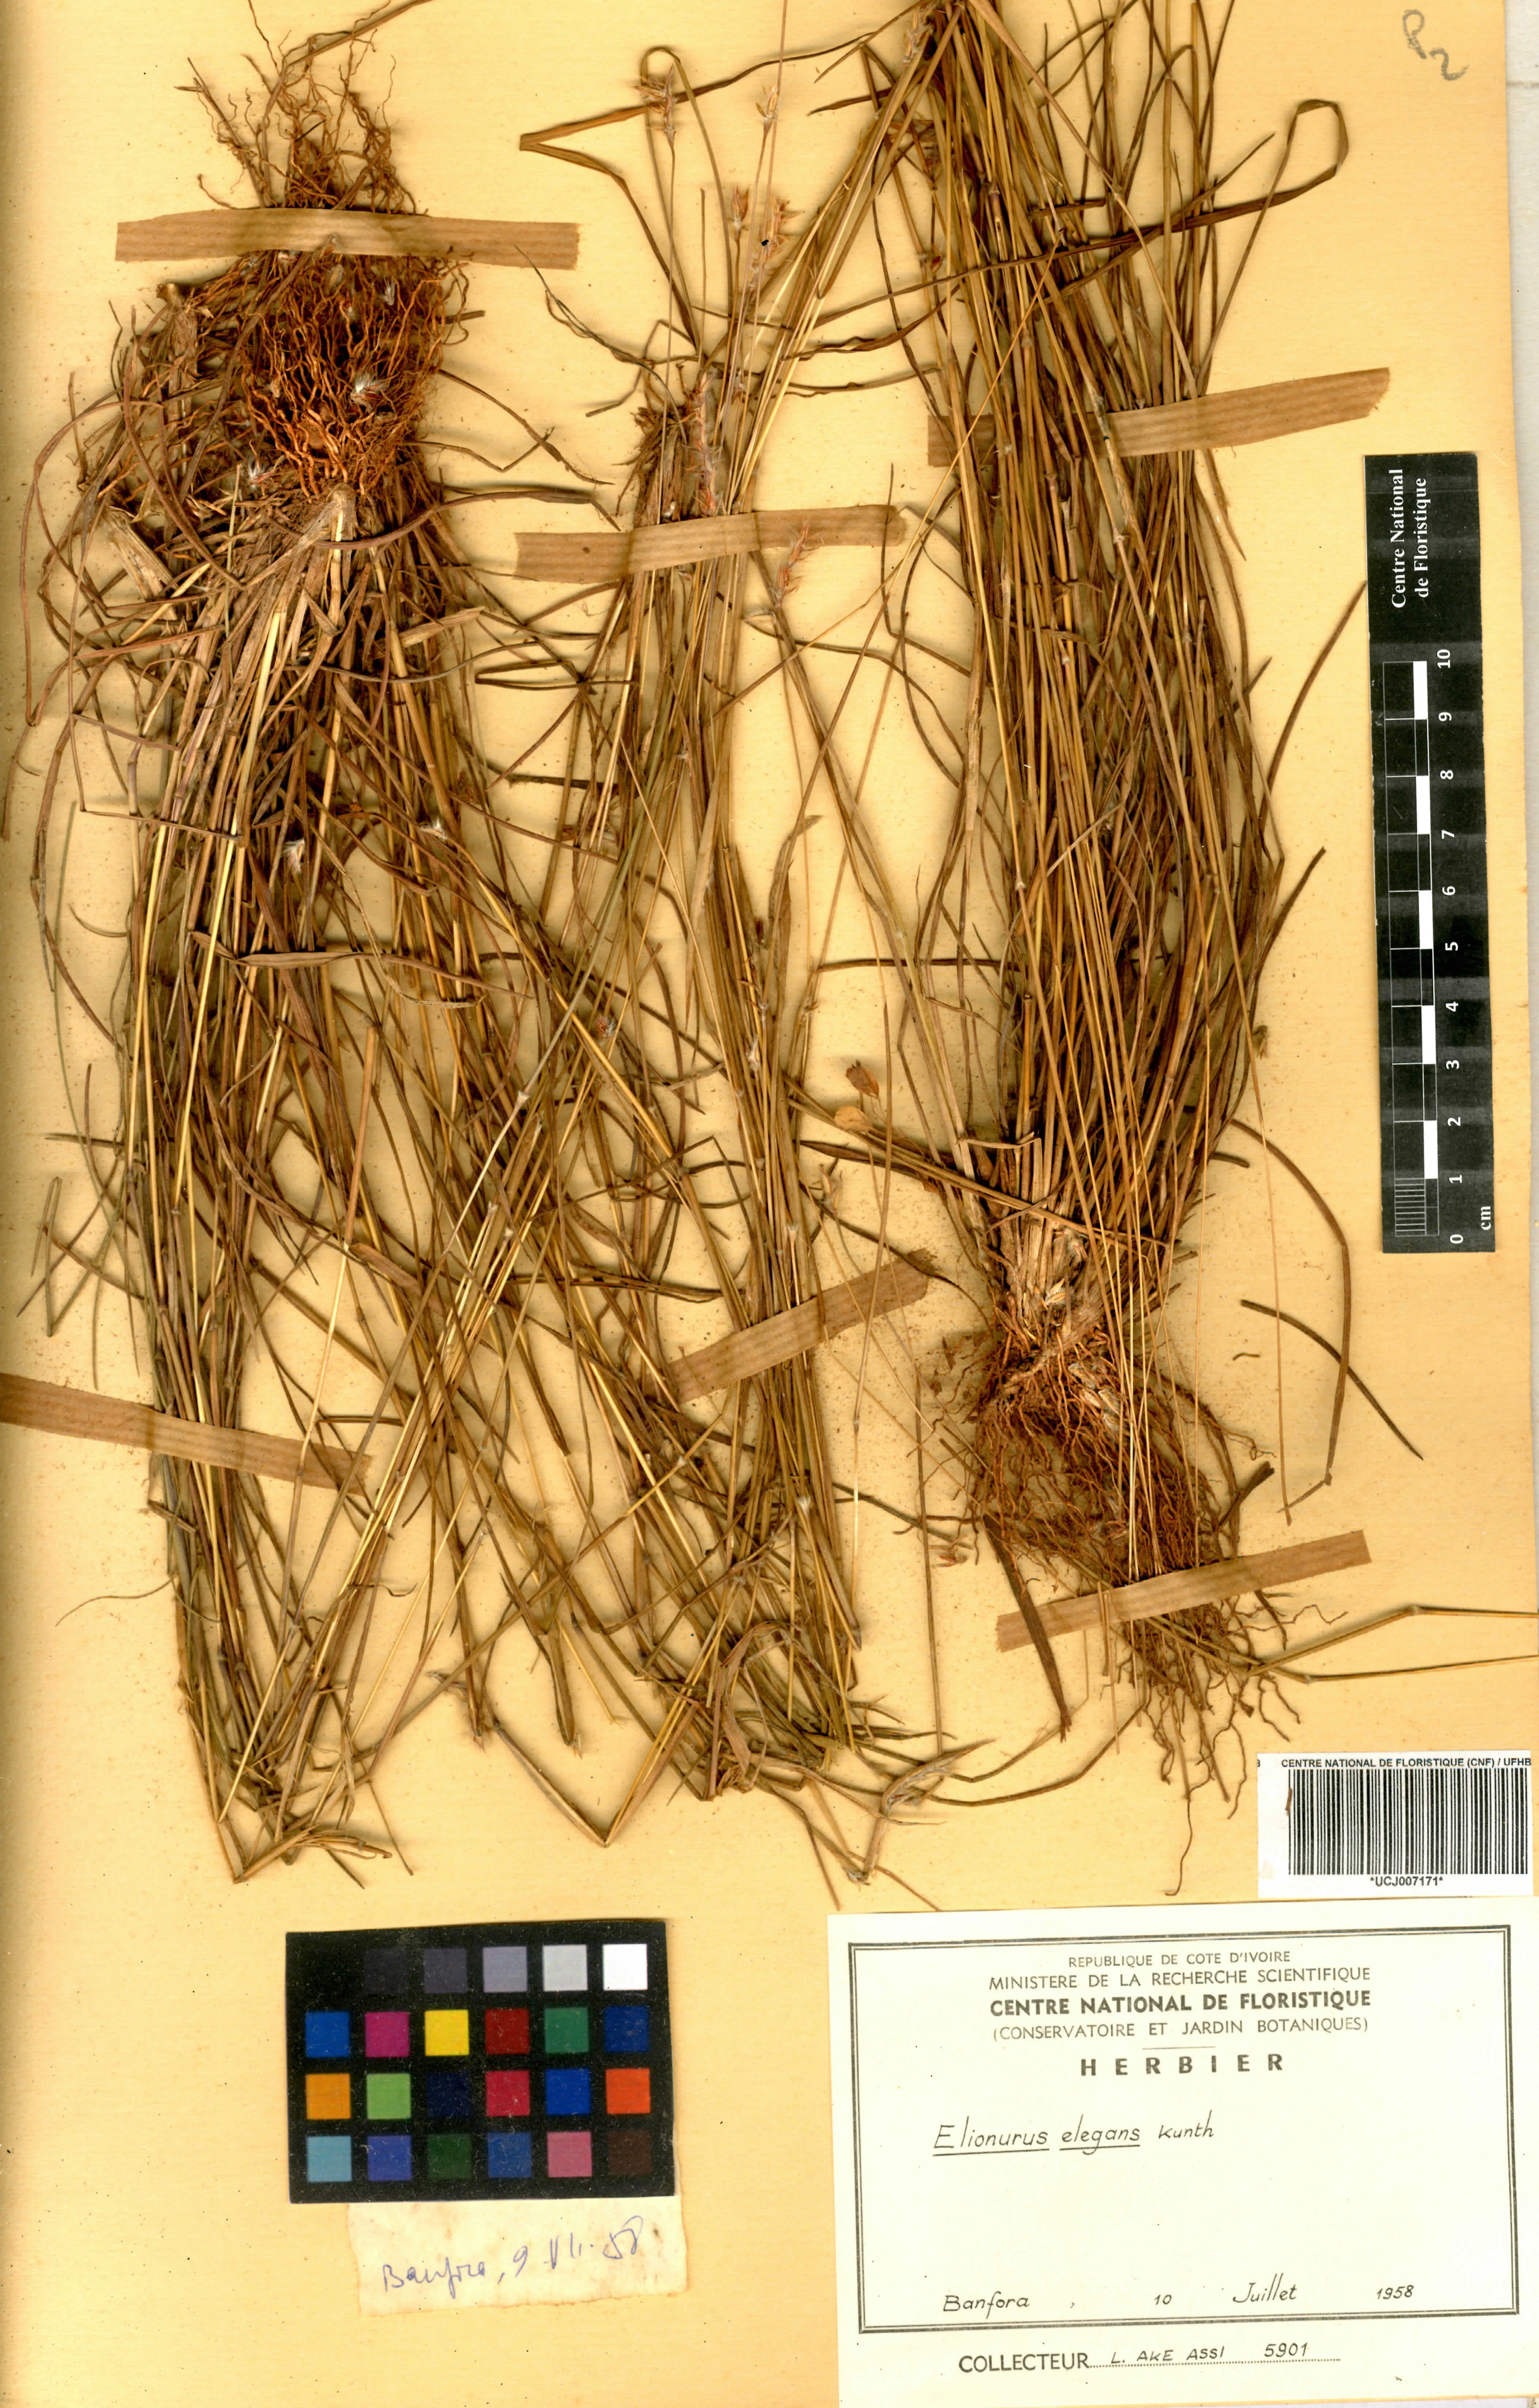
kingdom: Plantae
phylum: Tracheophyta
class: Liliopsida
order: Poales
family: Poaceae
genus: Elionurus
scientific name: Elionurus elegans
